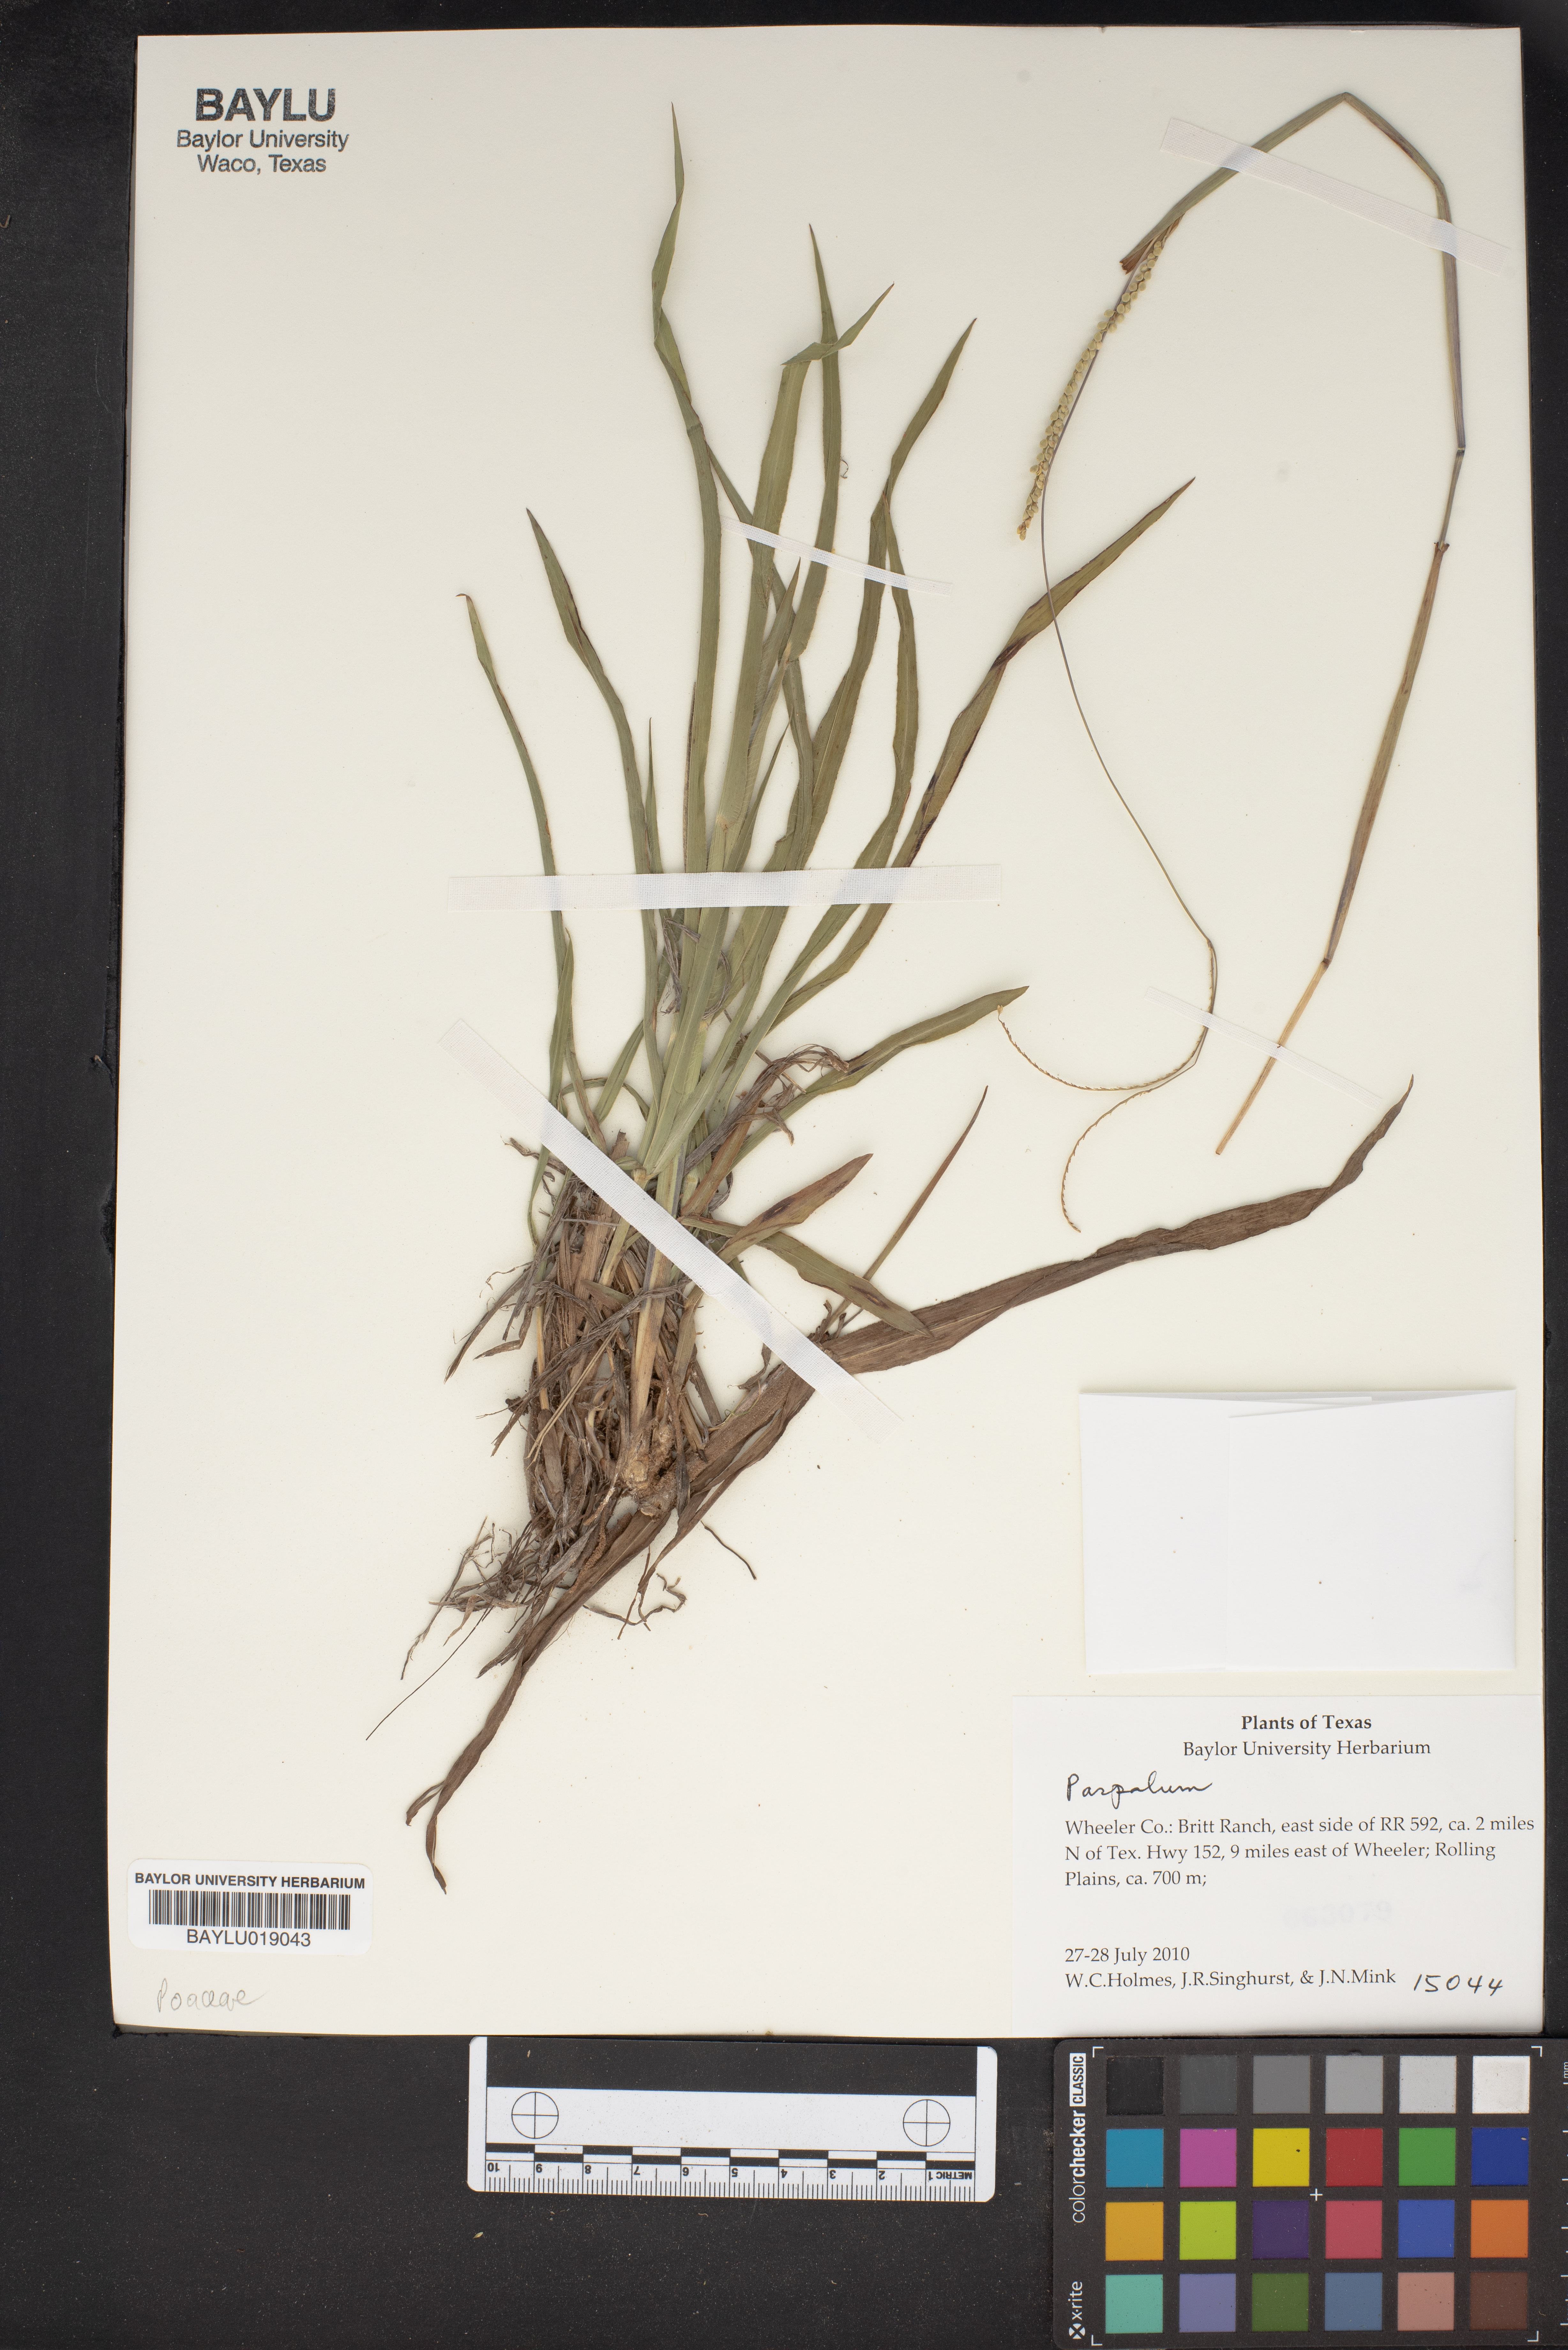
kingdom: Plantae
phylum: Tracheophyta
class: Liliopsida
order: Poales
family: Poaceae
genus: Paspalum
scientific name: Paspalum
